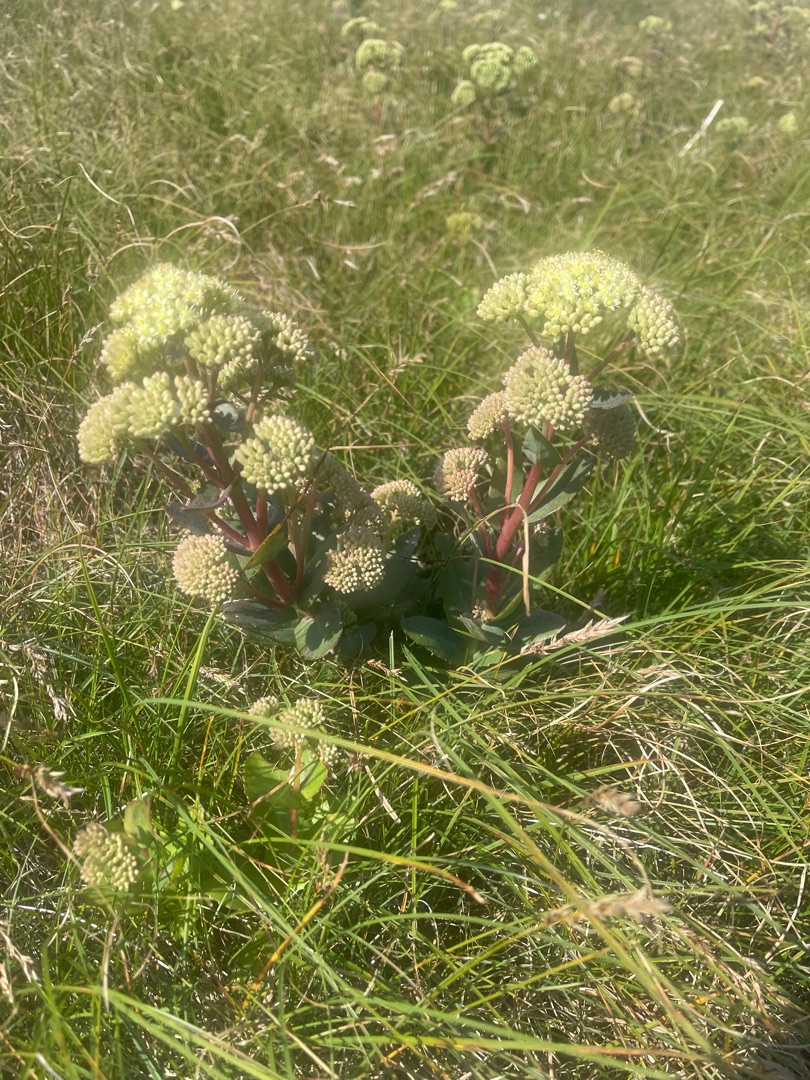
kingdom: Plantae
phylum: Tracheophyta
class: Magnoliopsida
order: Saxifragales
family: Crassulaceae
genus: Hylotelephium
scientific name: Hylotelephium maximum
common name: Almindelig sankthansurt
